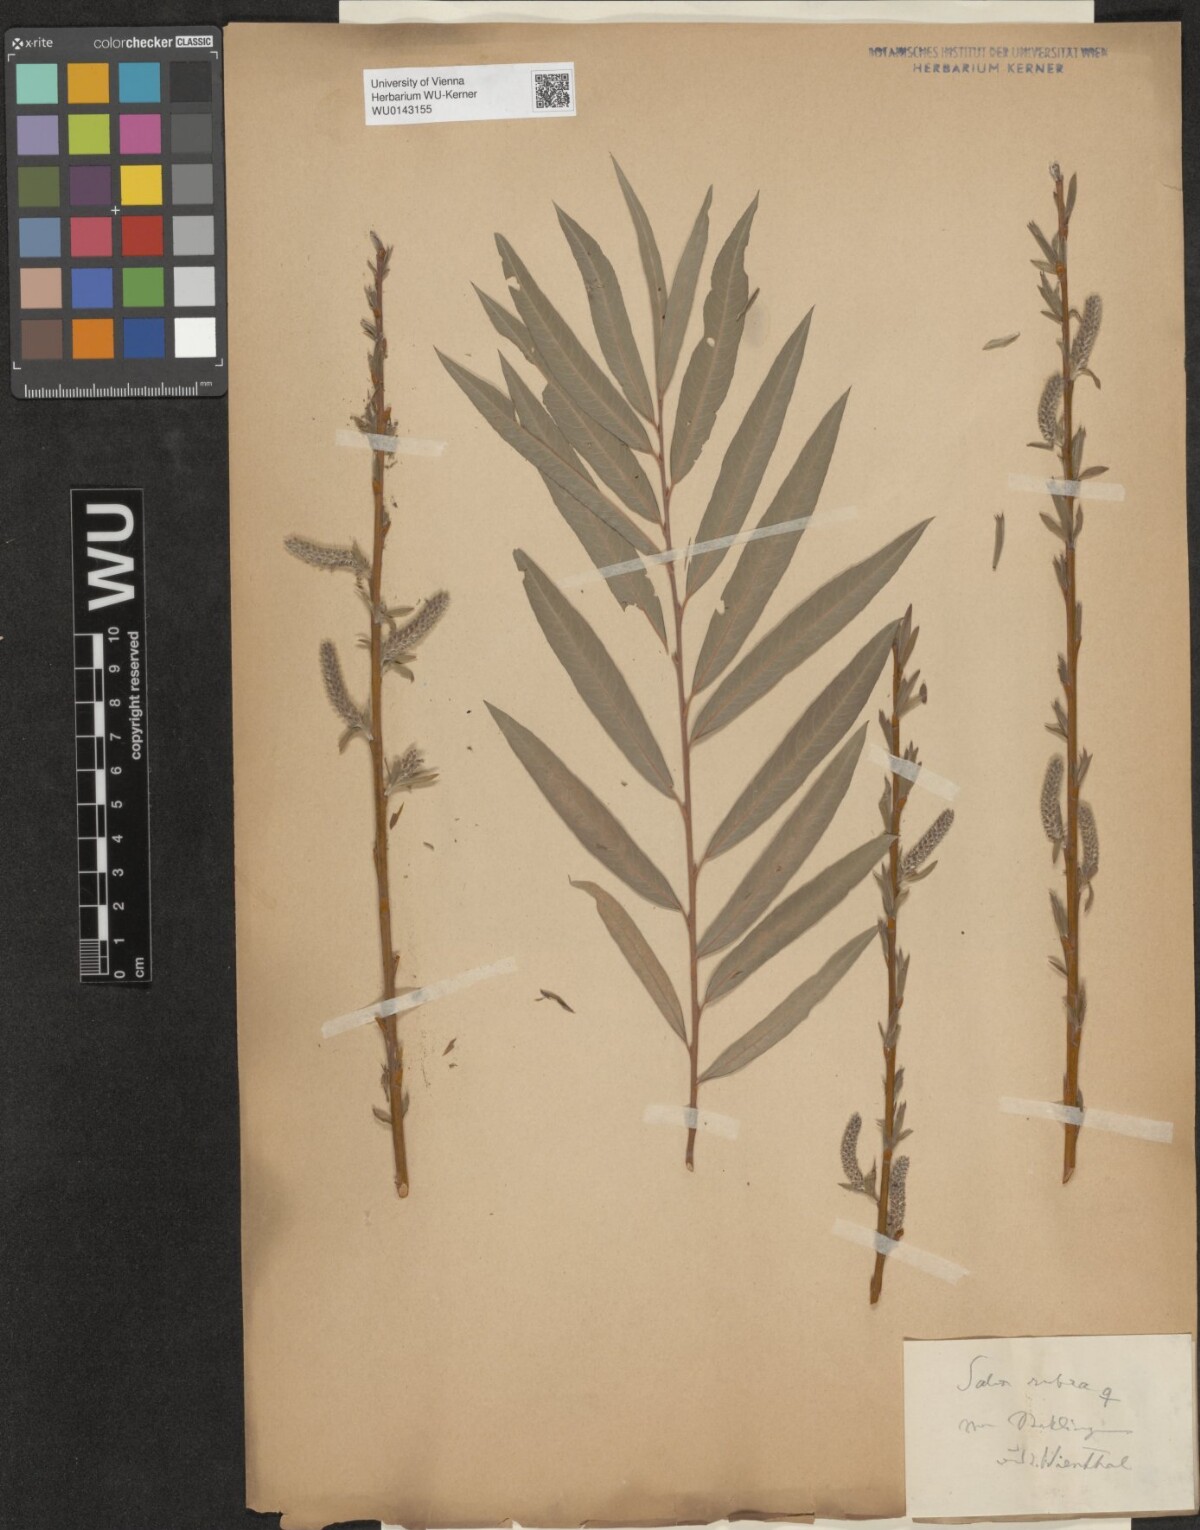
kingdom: Plantae
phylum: Tracheophyta
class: Magnoliopsida
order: Malpighiales
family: Salicaceae
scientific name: Salicaceae
